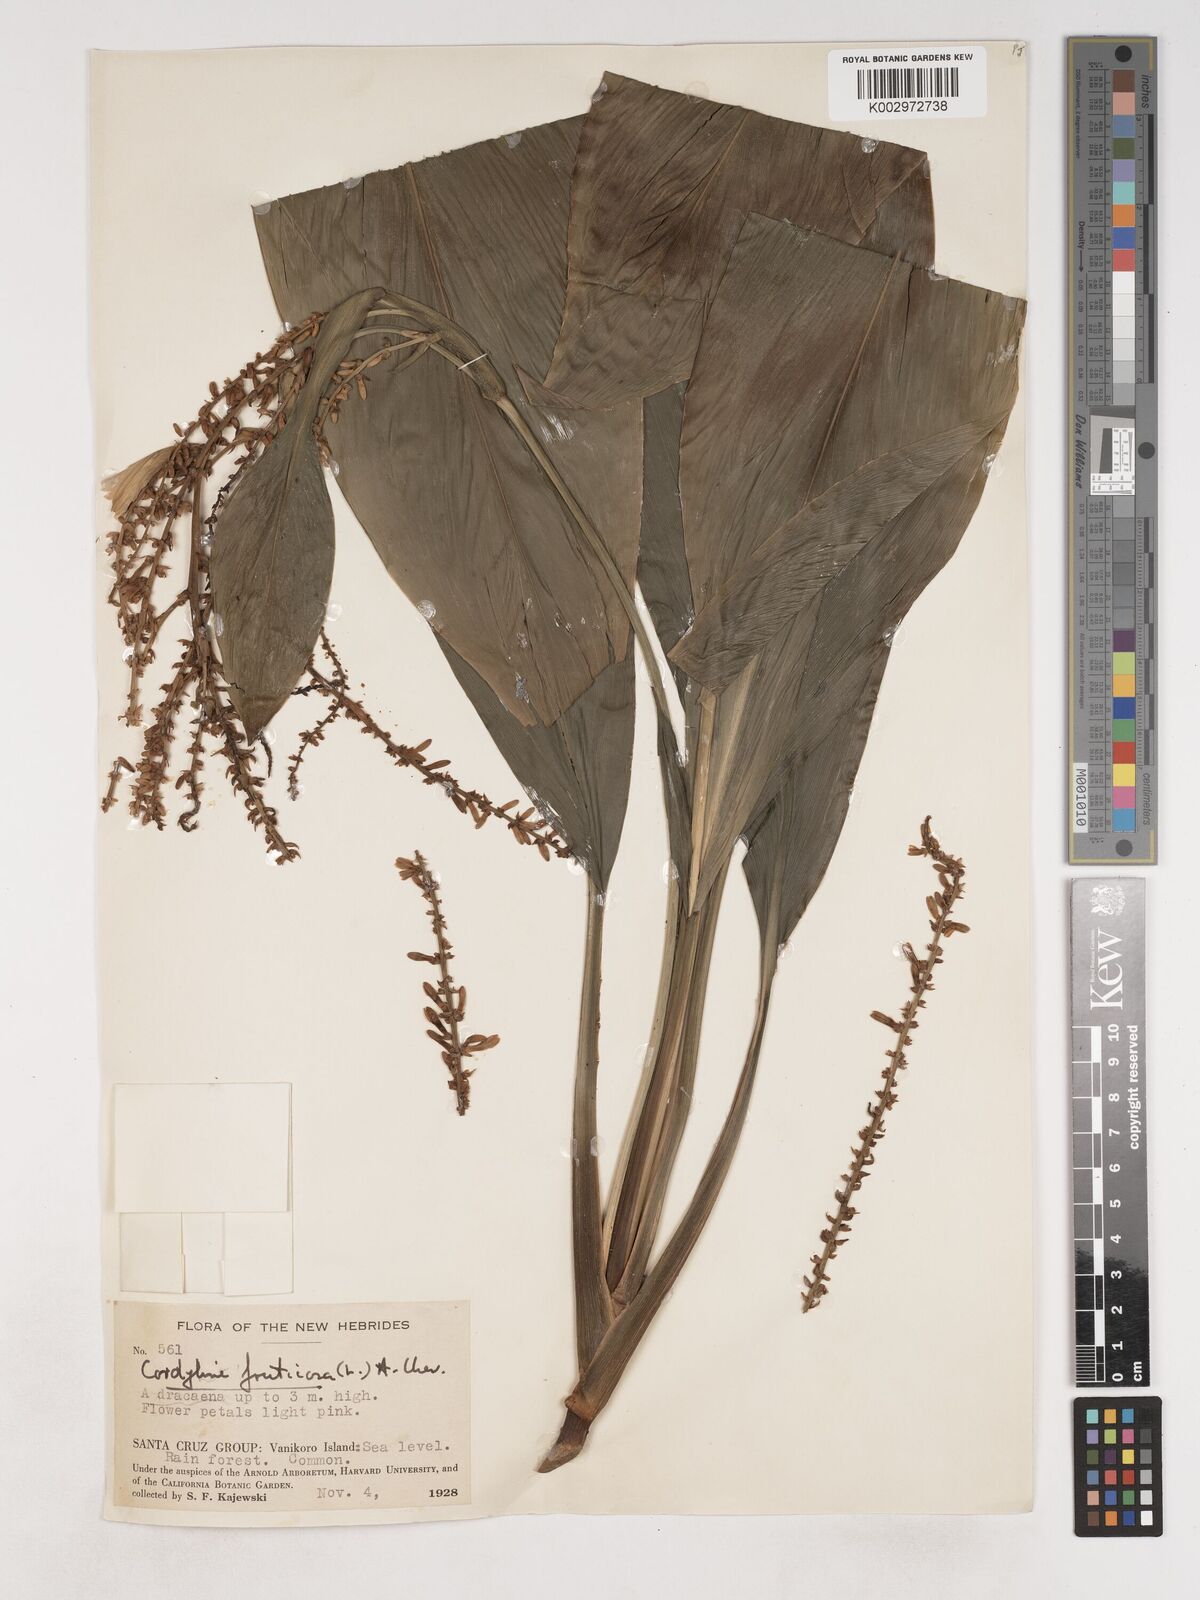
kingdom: Plantae
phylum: Tracheophyta
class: Liliopsida
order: Asparagales
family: Asparagaceae
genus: Cordyline
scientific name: Cordyline fruticosa
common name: Good-luck-plant
